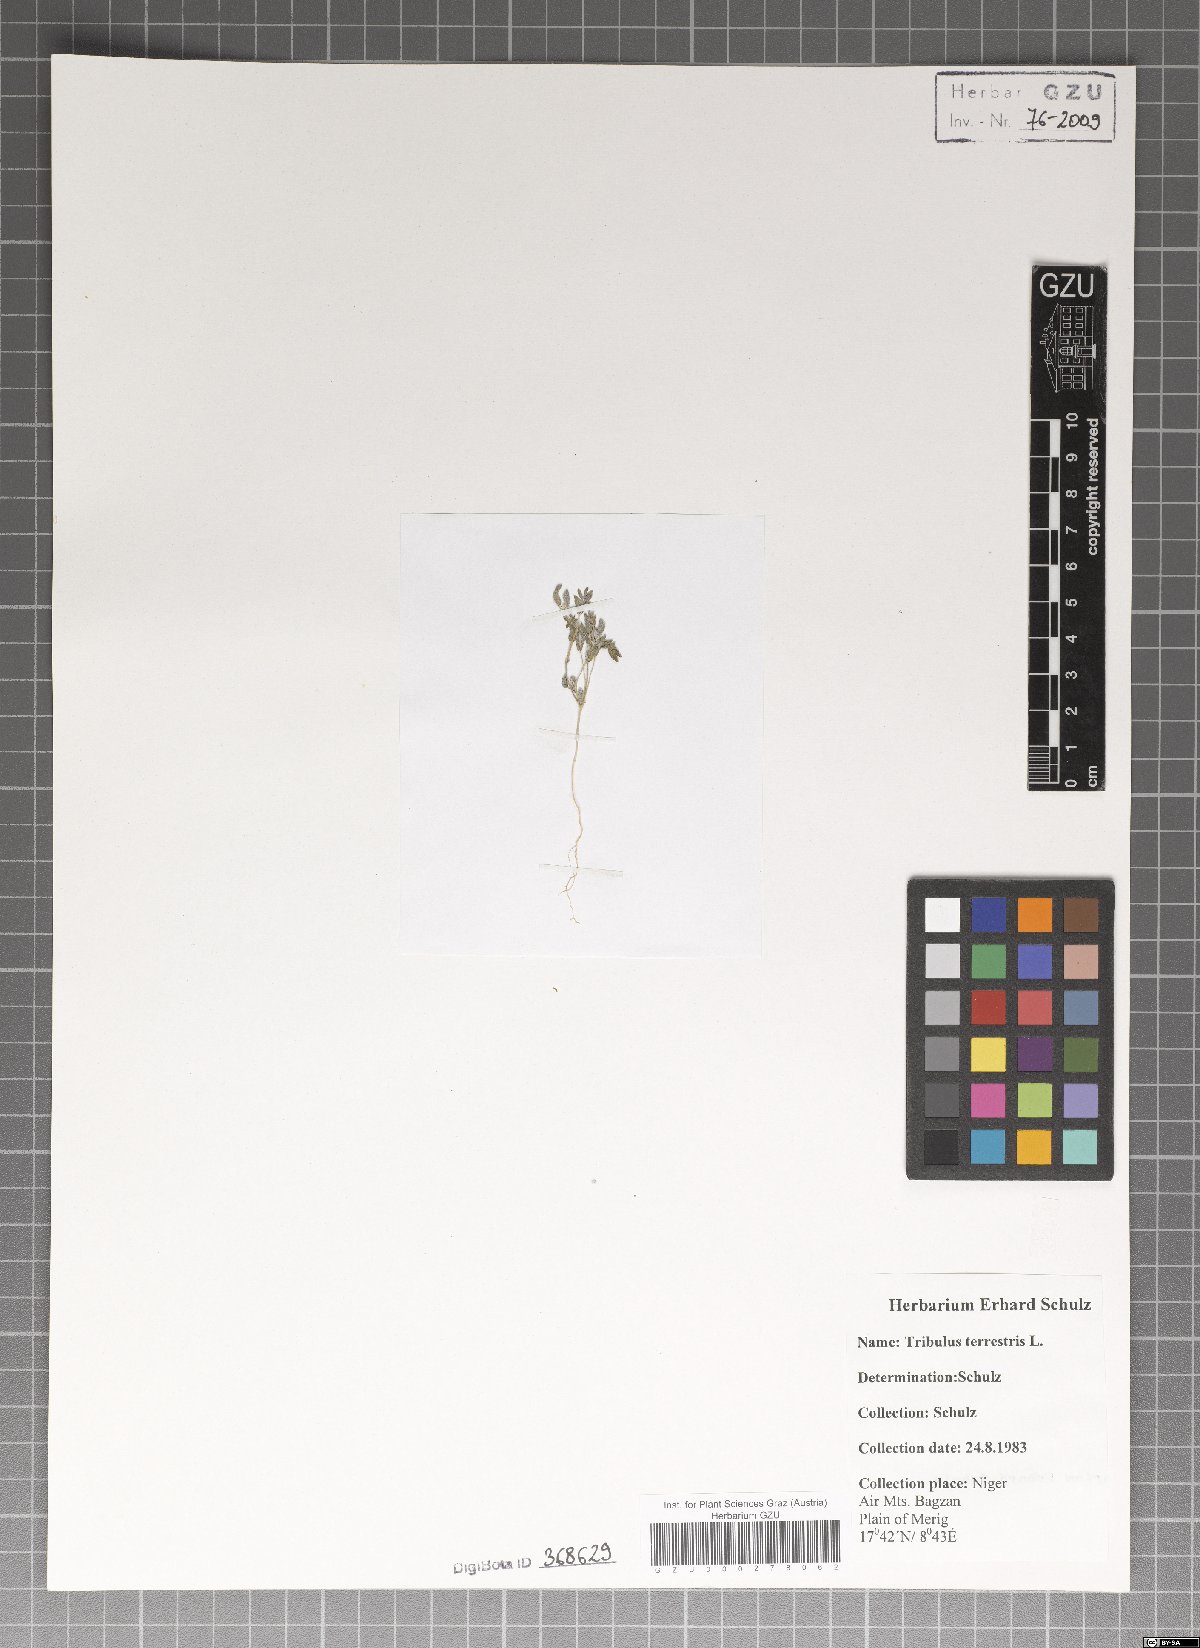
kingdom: Plantae
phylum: Tracheophyta
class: Magnoliopsida
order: Zygophyllales
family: Zygophyllaceae
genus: Tribulus
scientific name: Tribulus terrestris
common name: Puncturevine
